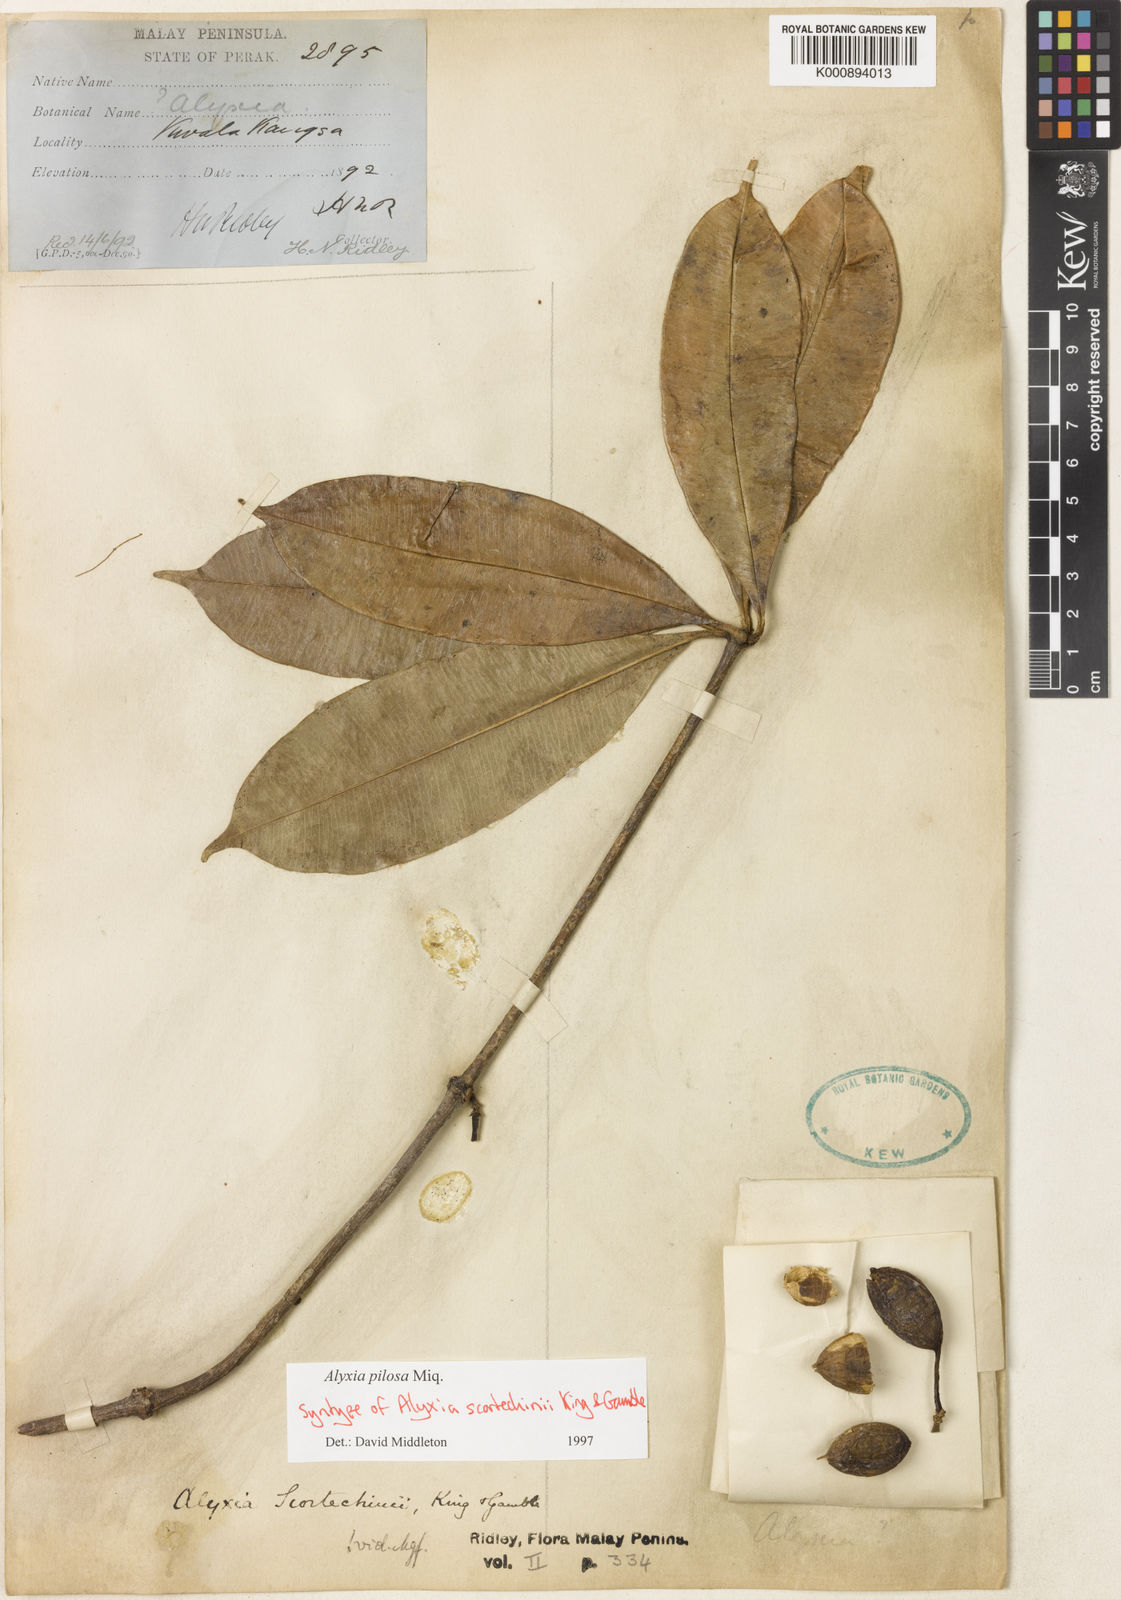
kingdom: Plantae
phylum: Tracheophyta
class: Magnoliopsida
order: Gentianales
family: Apocynaceae
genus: Alyxia
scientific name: Alyxia pilosa
